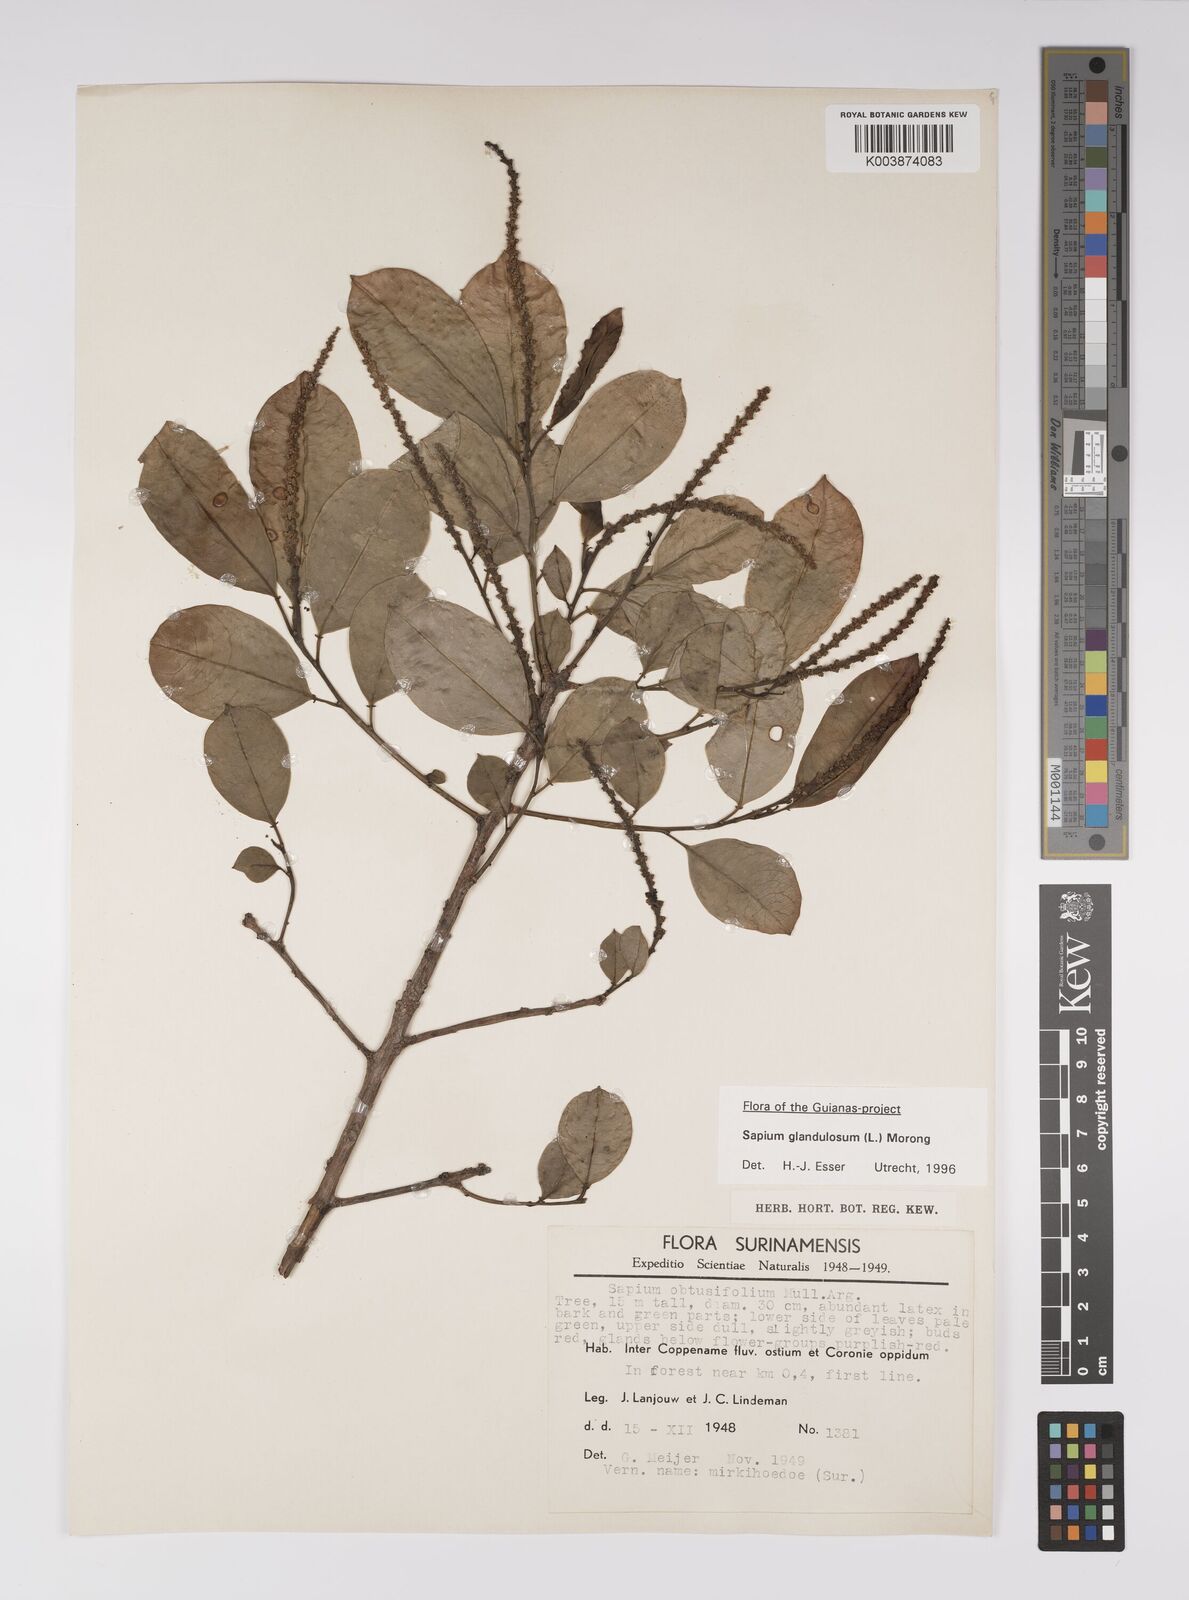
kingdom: Plantae
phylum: Tracheophyta
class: Magnoliopsida
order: Malpighiales
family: Euphorbiaceae
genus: Sapium
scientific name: Sapium glandulosum
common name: Milktree
